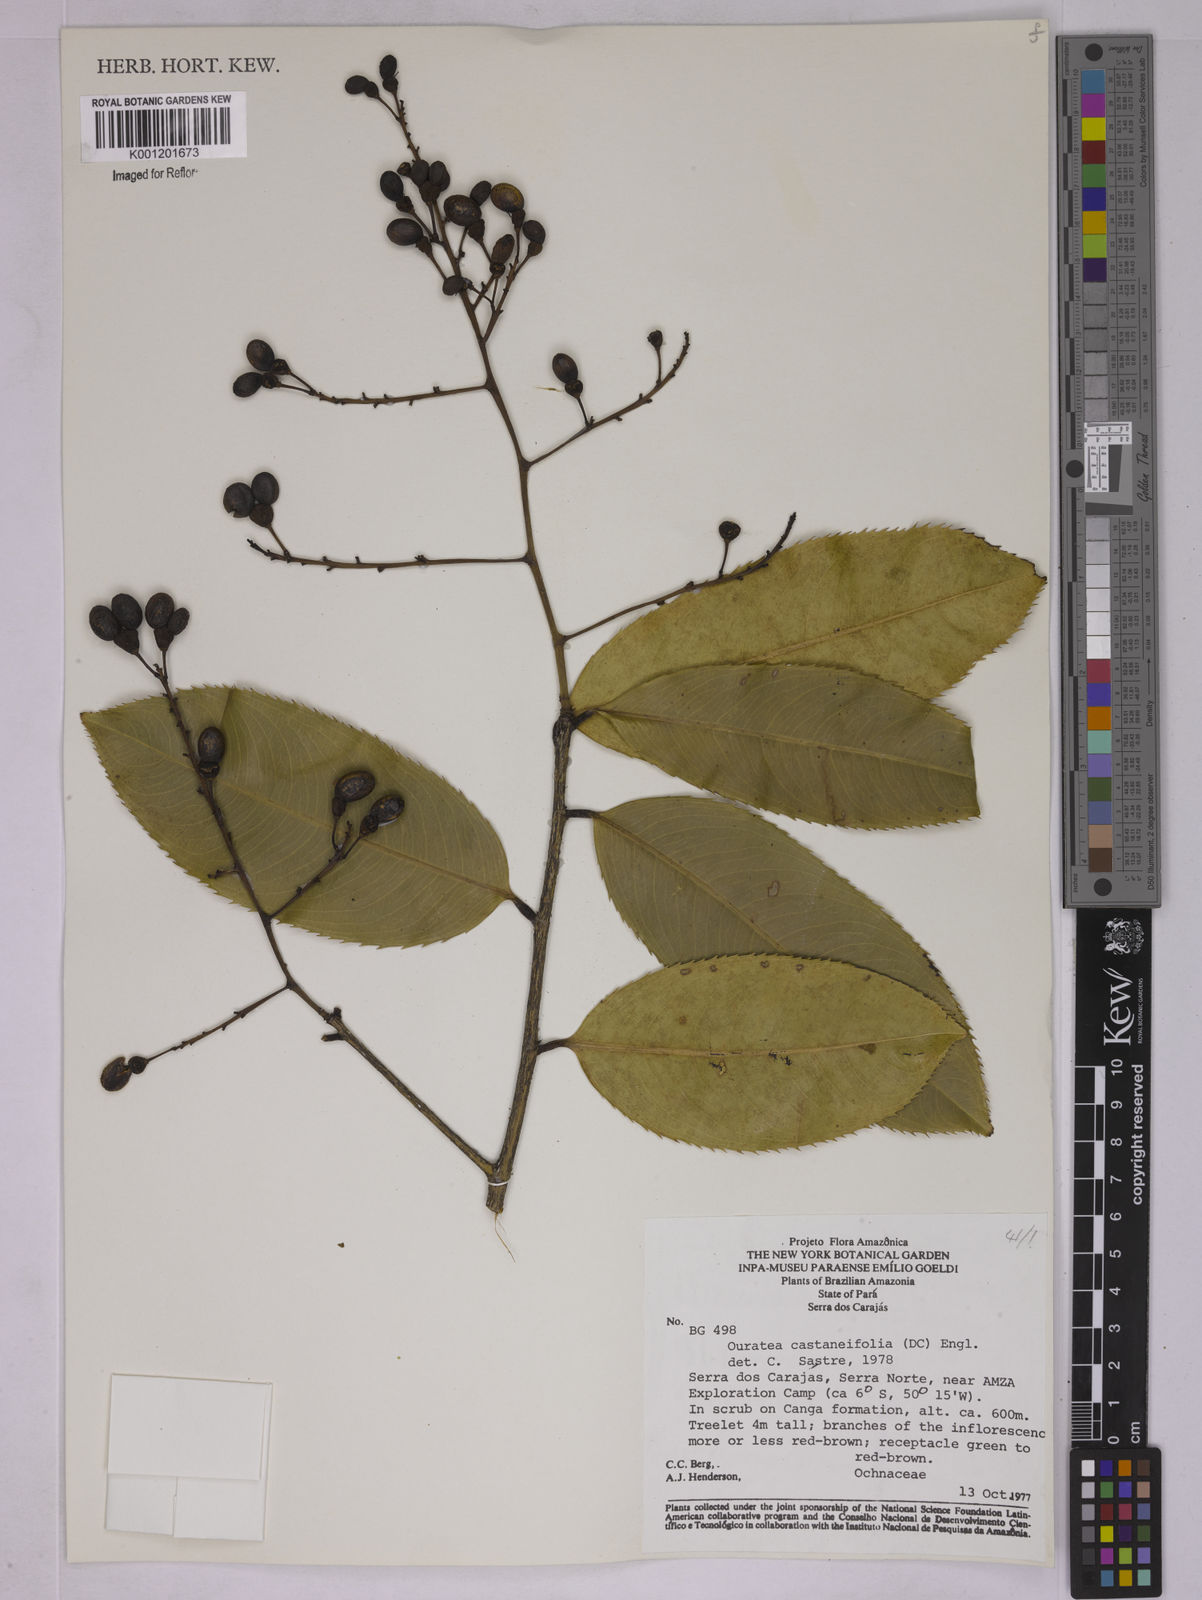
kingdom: Plantae
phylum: Tracheophyta
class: Magnoliopsida
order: Malpighiales
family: Ochnaceae
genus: Ouratea
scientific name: Ouratea castaneifolia
